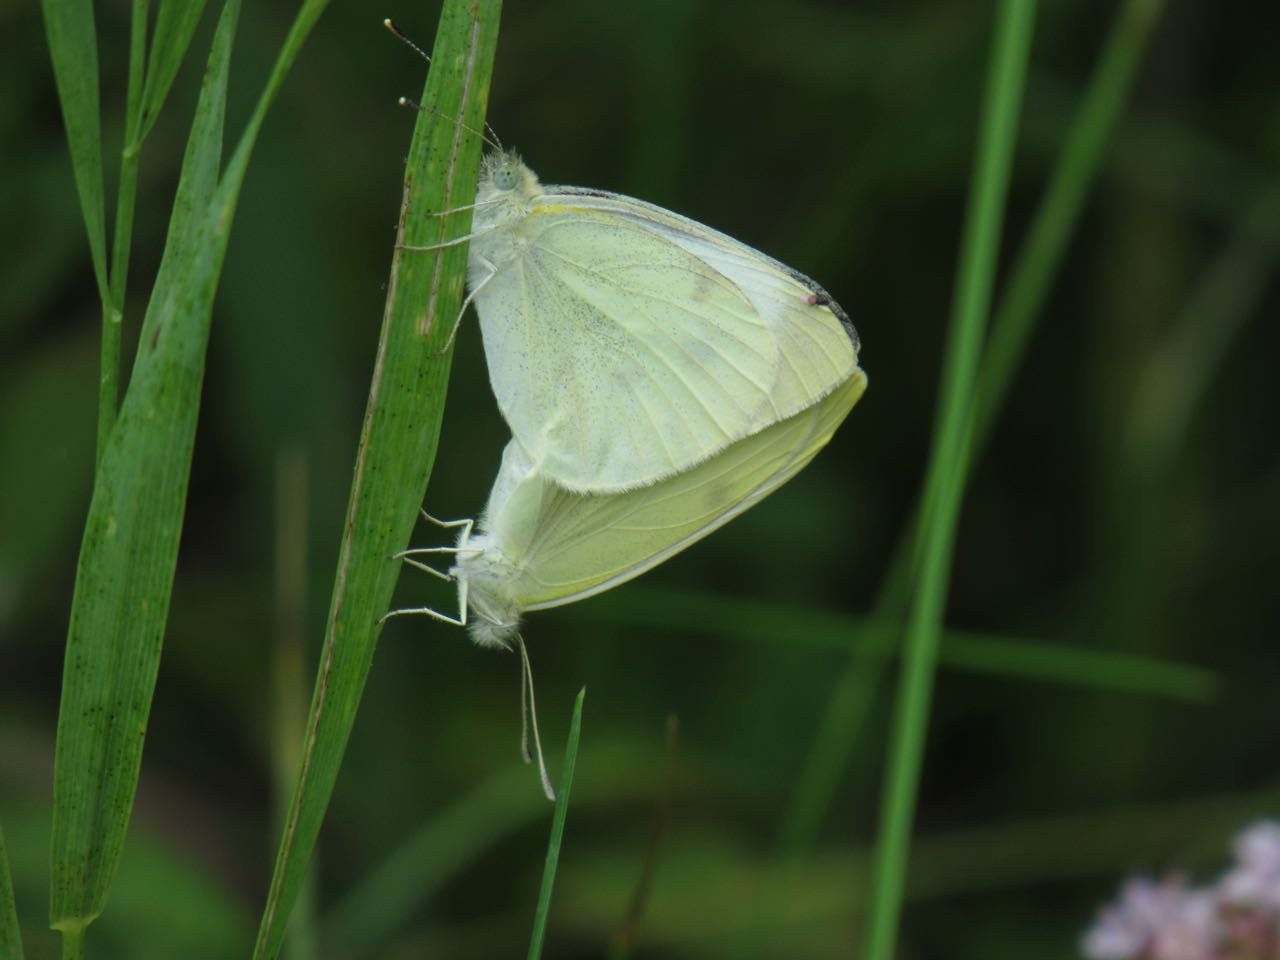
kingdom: Animalia
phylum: Arthropoda
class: Insecta
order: Lepidoptera
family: Pieridae
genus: Pieris
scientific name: Pieris rapae
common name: Cabbage White
